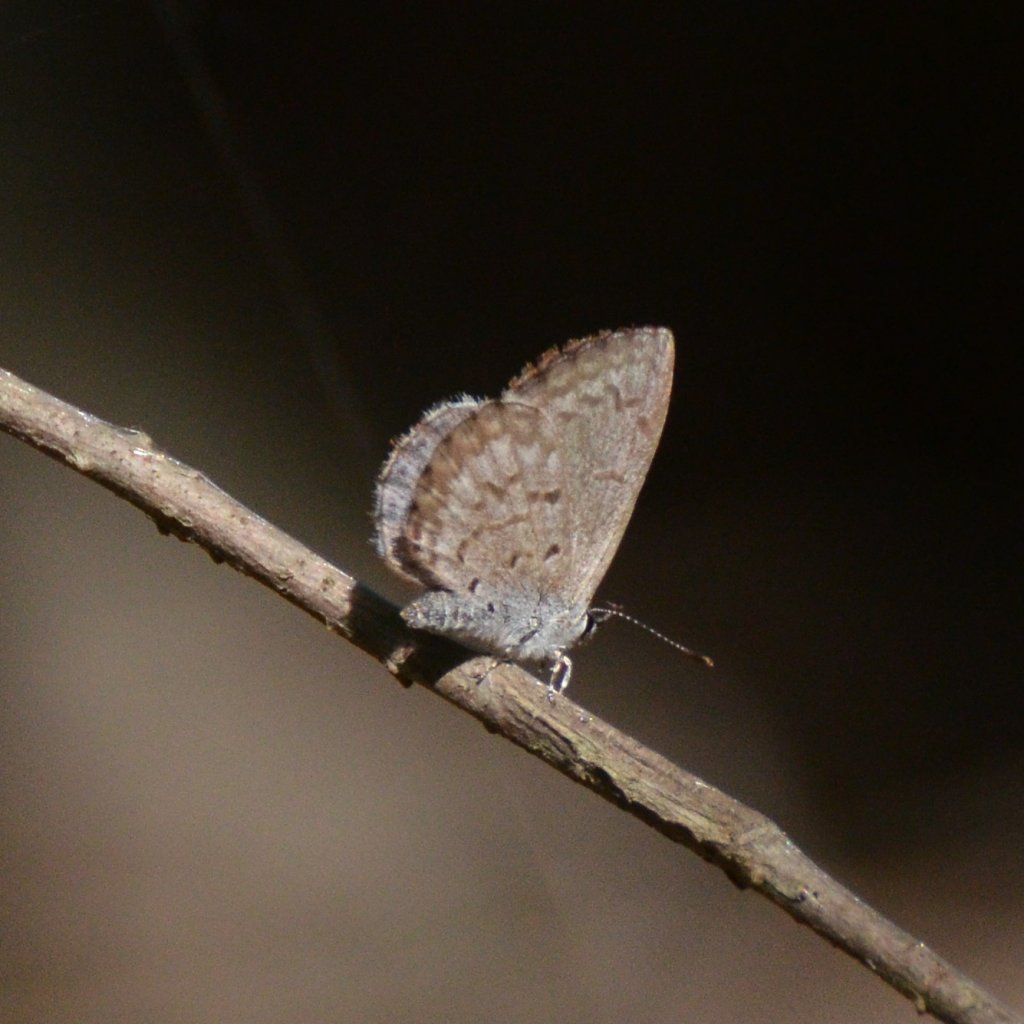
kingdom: Animalia
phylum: Arthropoda
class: Insecta
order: Lepidoptera
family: Lycaenidae
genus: Celastrina
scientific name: Celastrina lucia
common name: Northern Spring Azure
